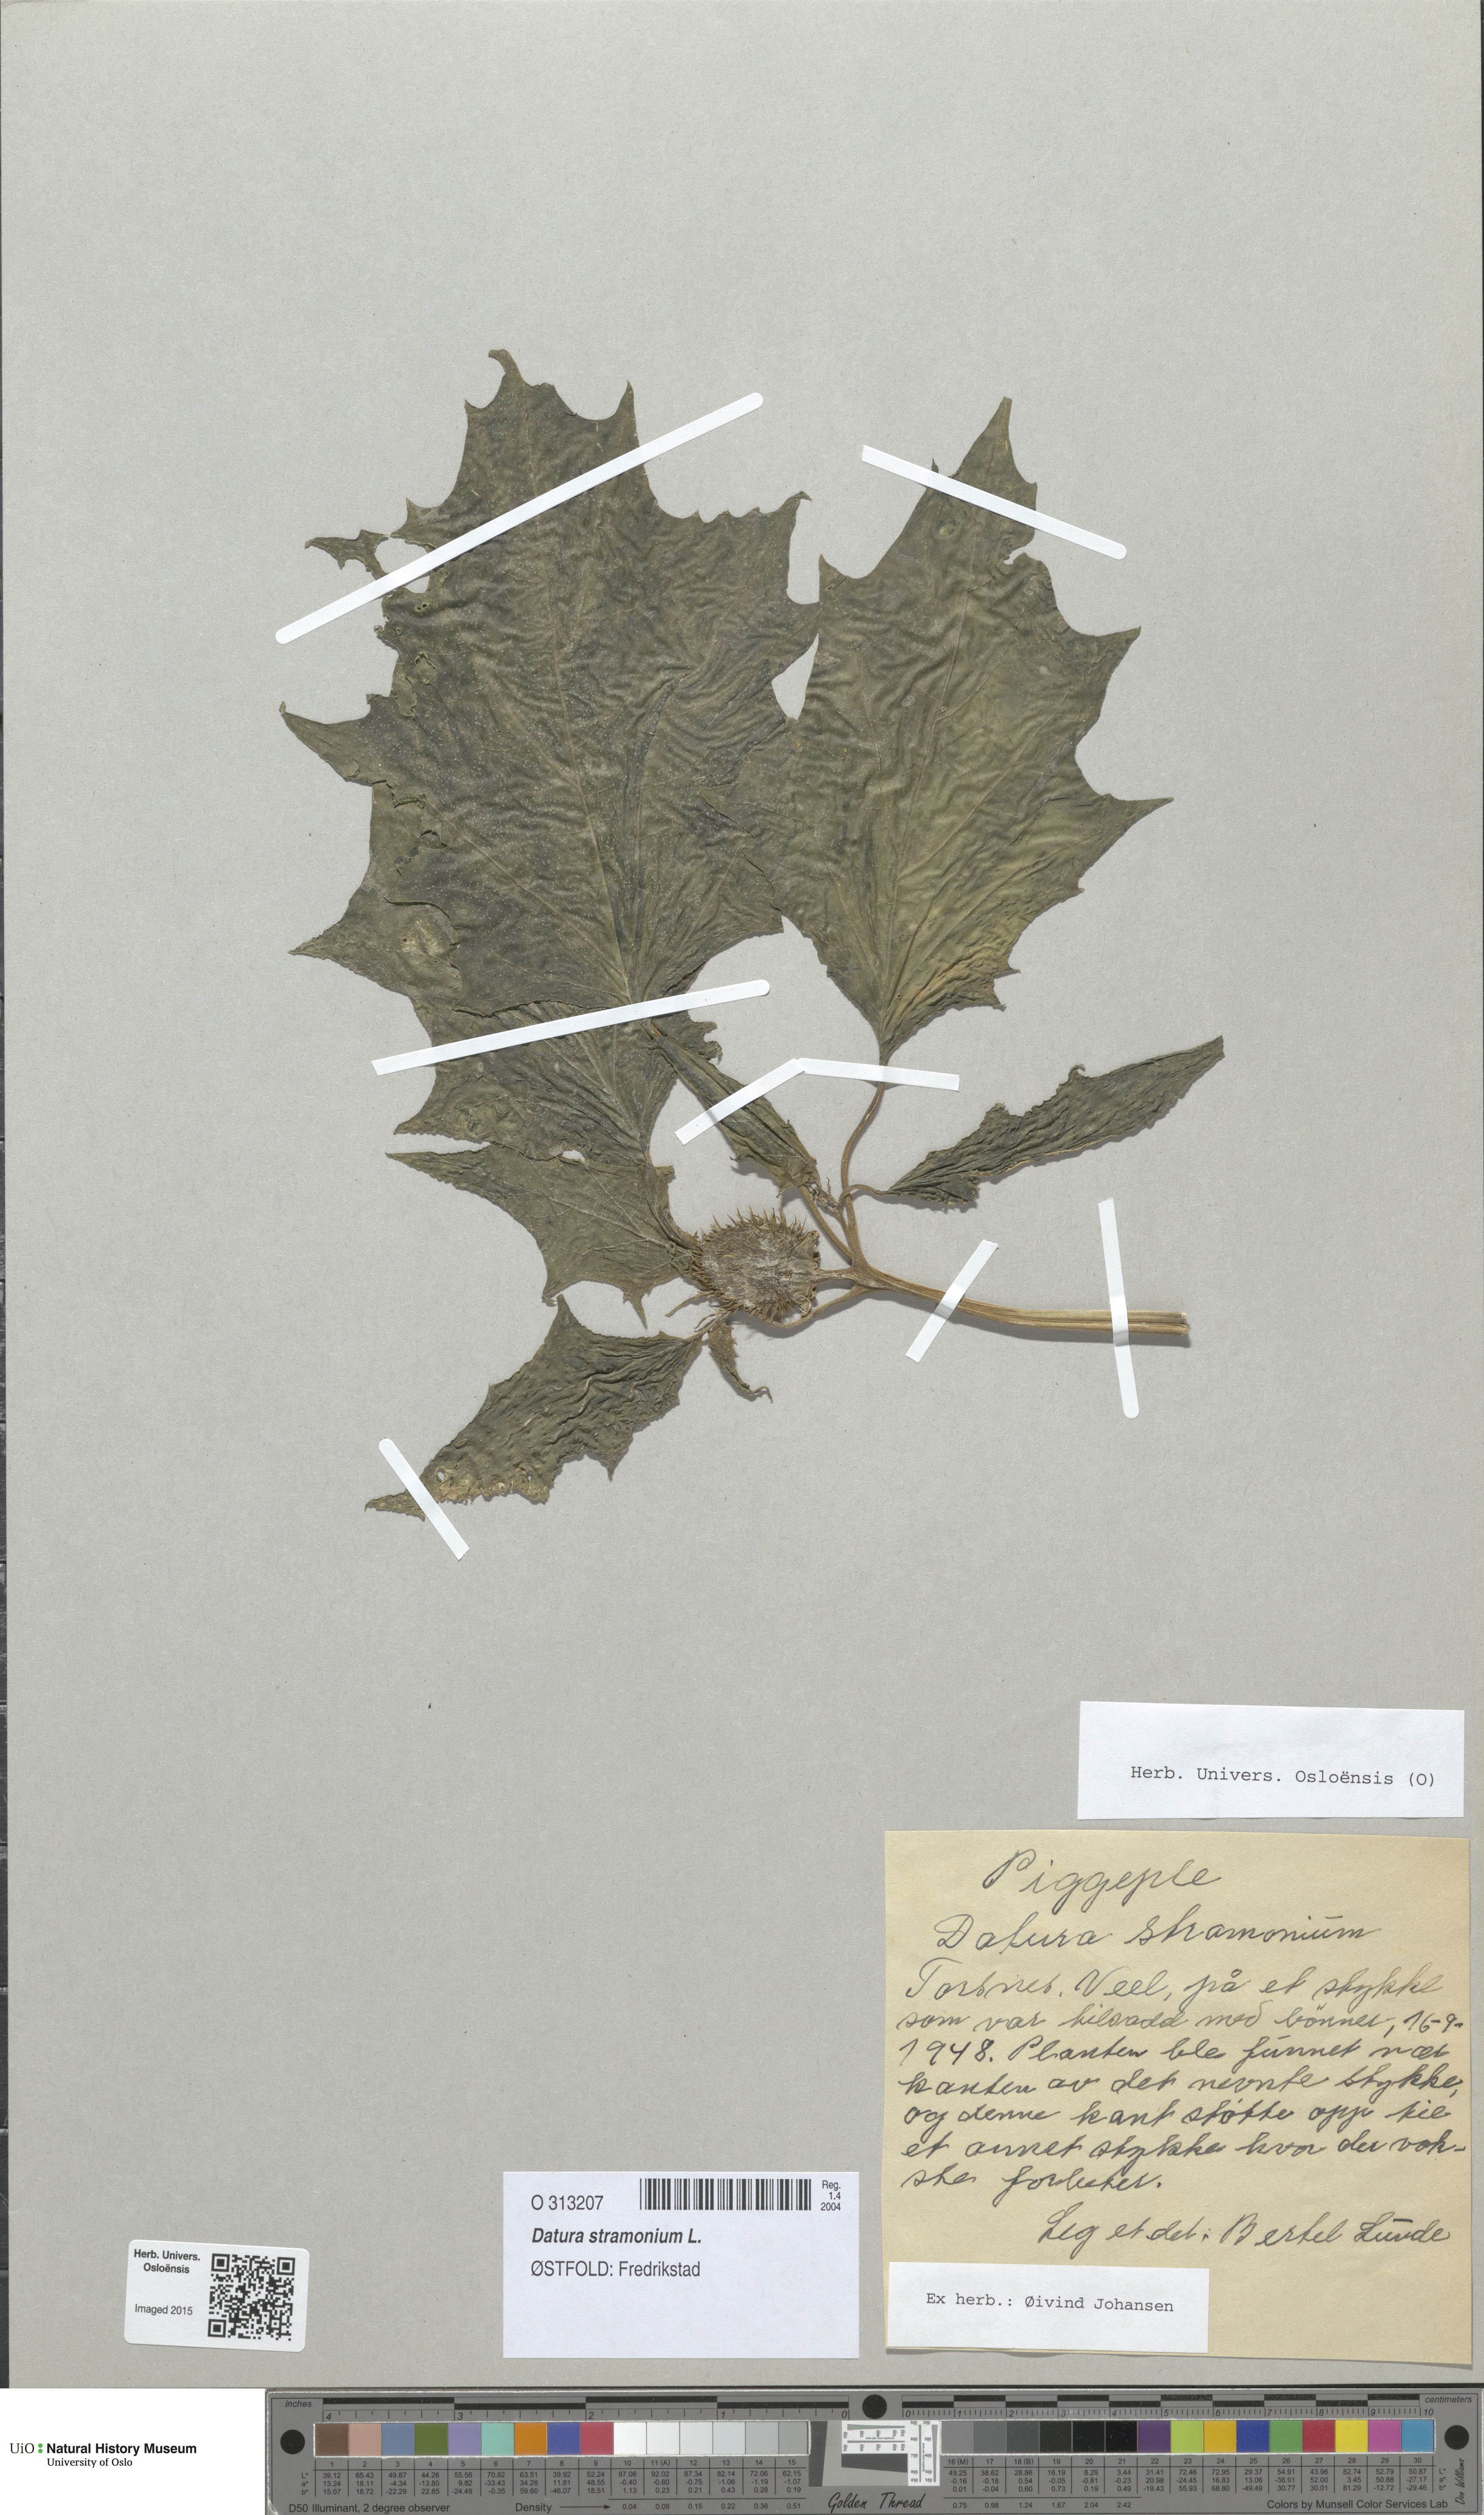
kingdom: Plantae
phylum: Tracheophyta
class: Magnoliopsida
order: Solanales
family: Solanaceae
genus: Datura
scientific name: Datura stramonium
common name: Thorn-apple
